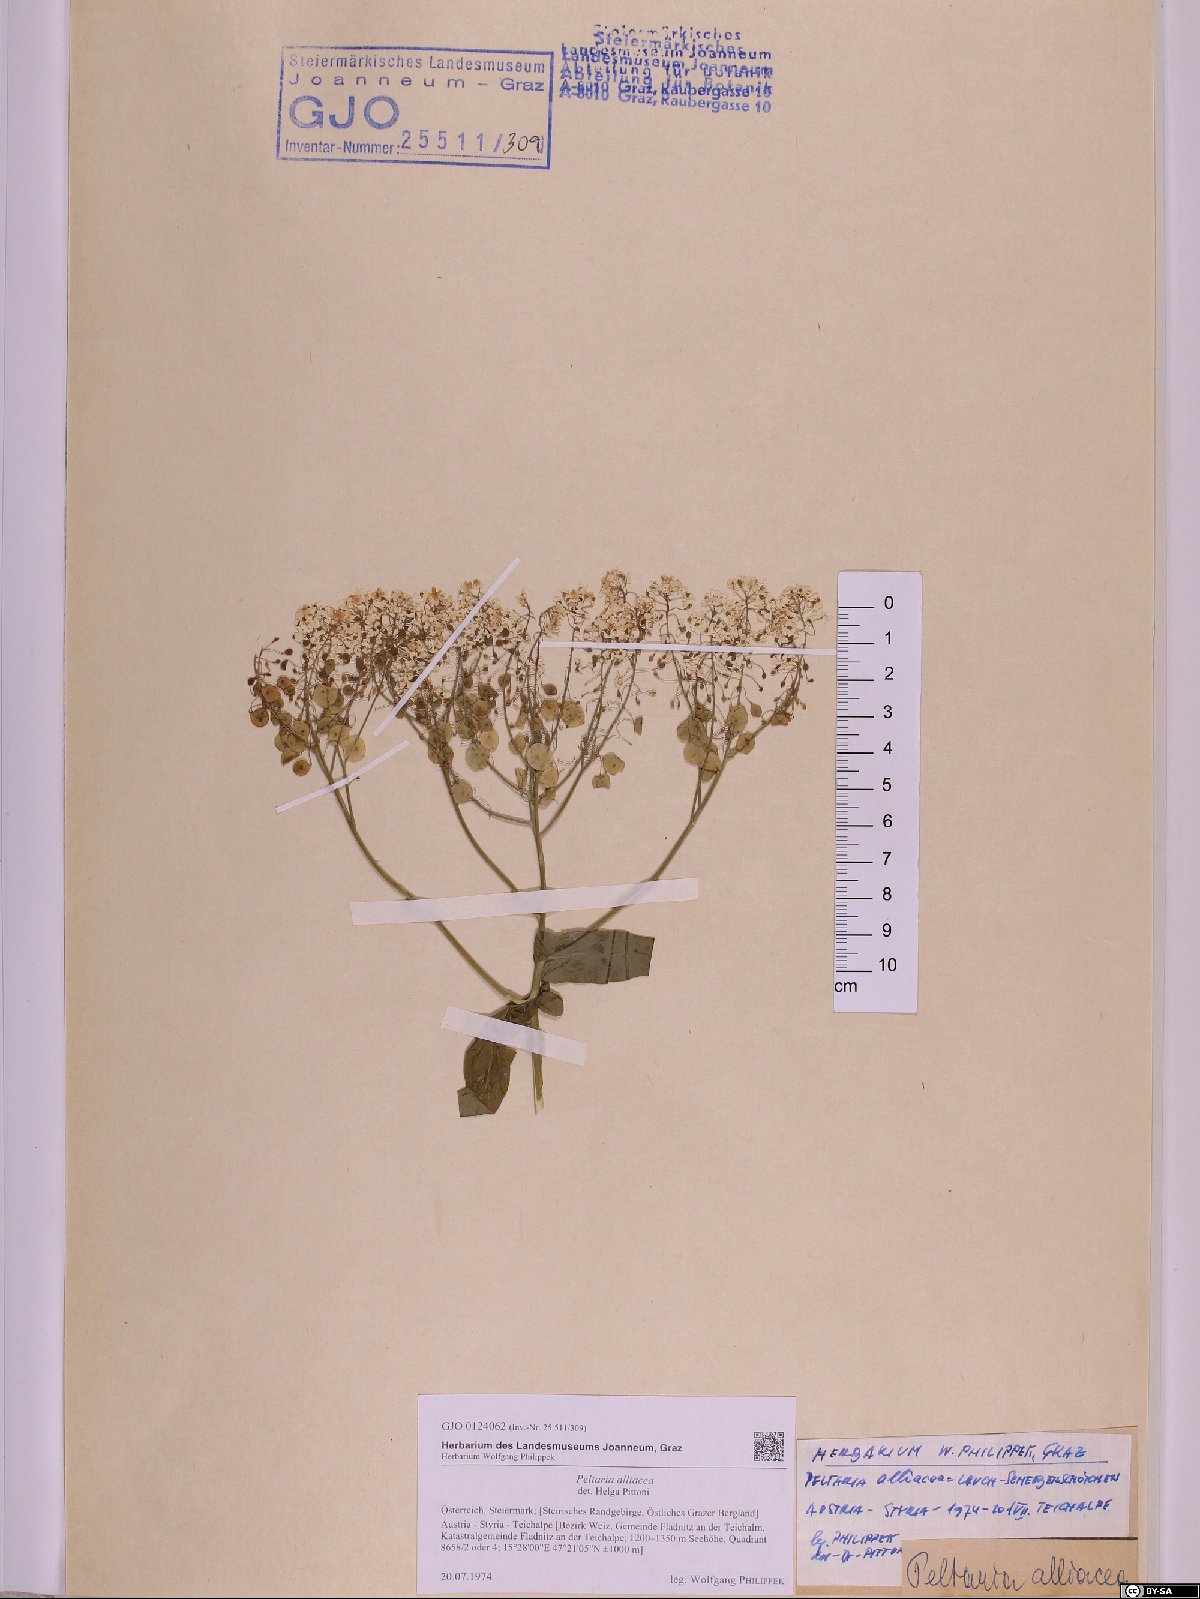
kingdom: Plantae
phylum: Tracheophyta
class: Magnoliopsida
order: Brassicales
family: Brassicaceae
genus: Peltaria
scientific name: Peltaria alliacea
